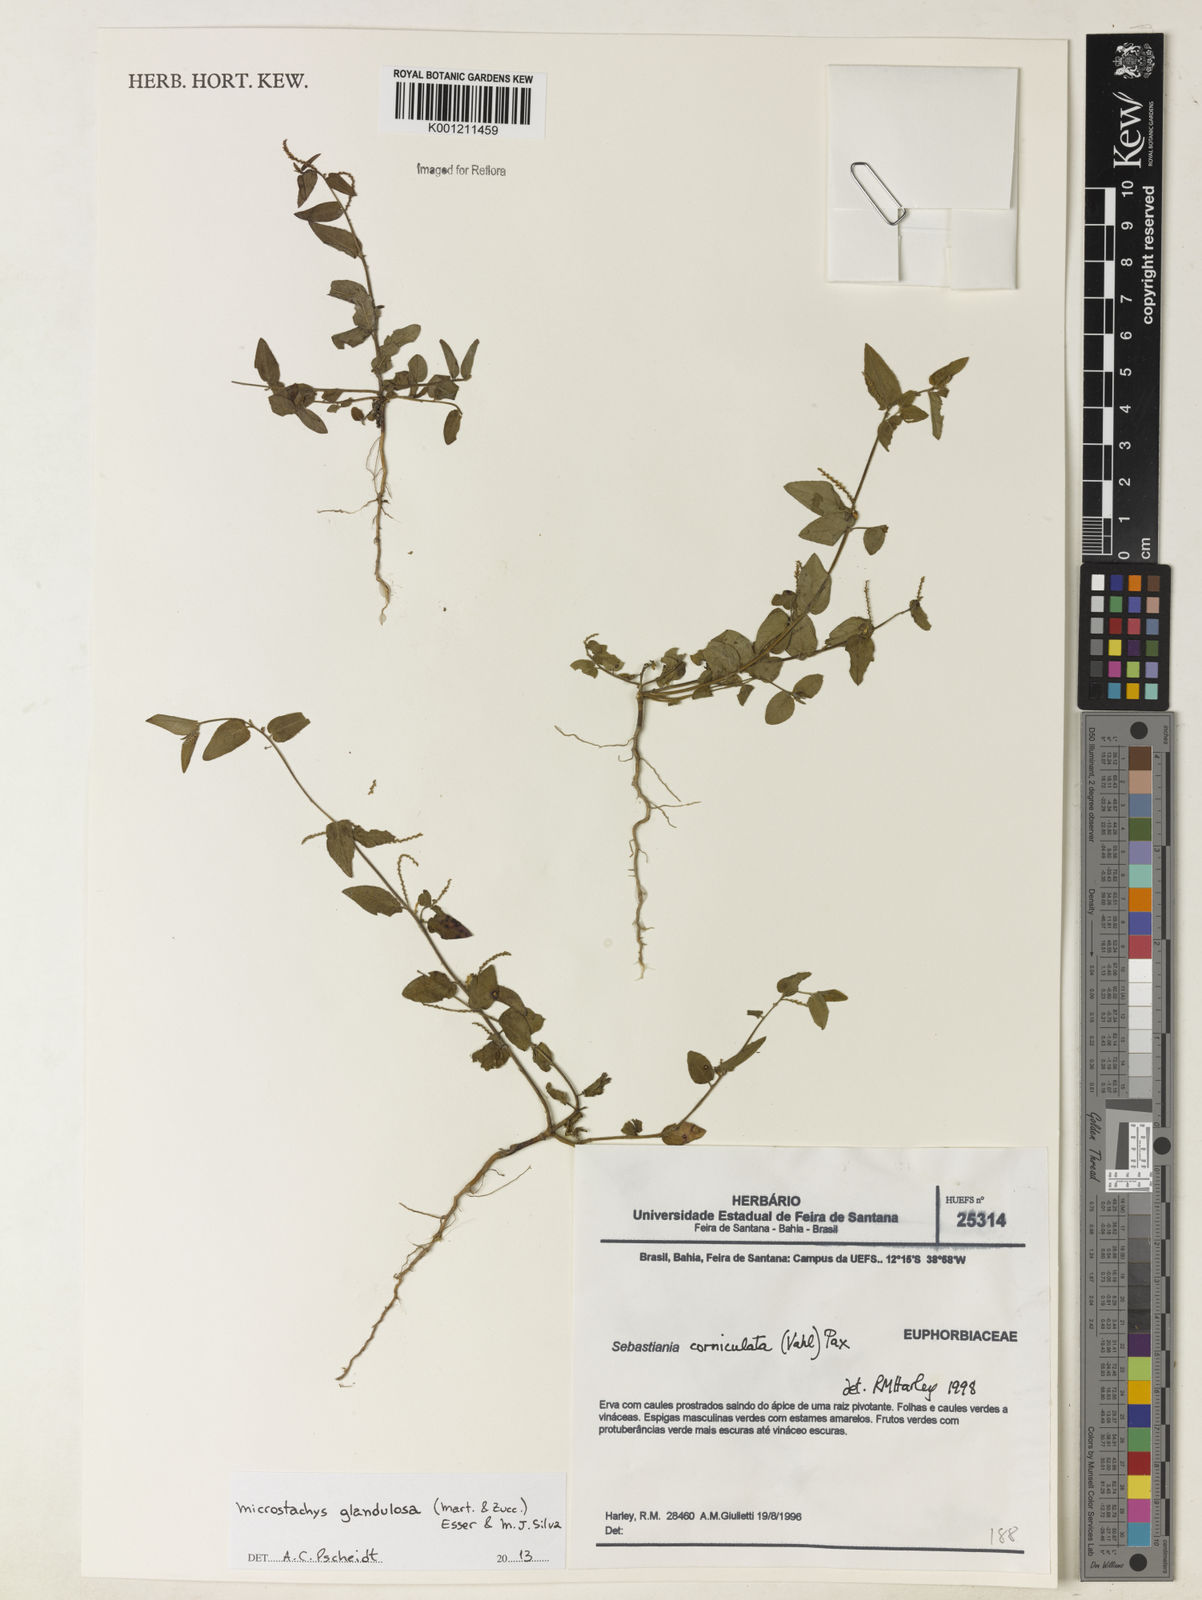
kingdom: Plantae
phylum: Tracheophyta
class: Magnoliopsida
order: Malpighiales
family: Euphorbiaceae
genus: Microstachys
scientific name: Microstachys glandulosa
